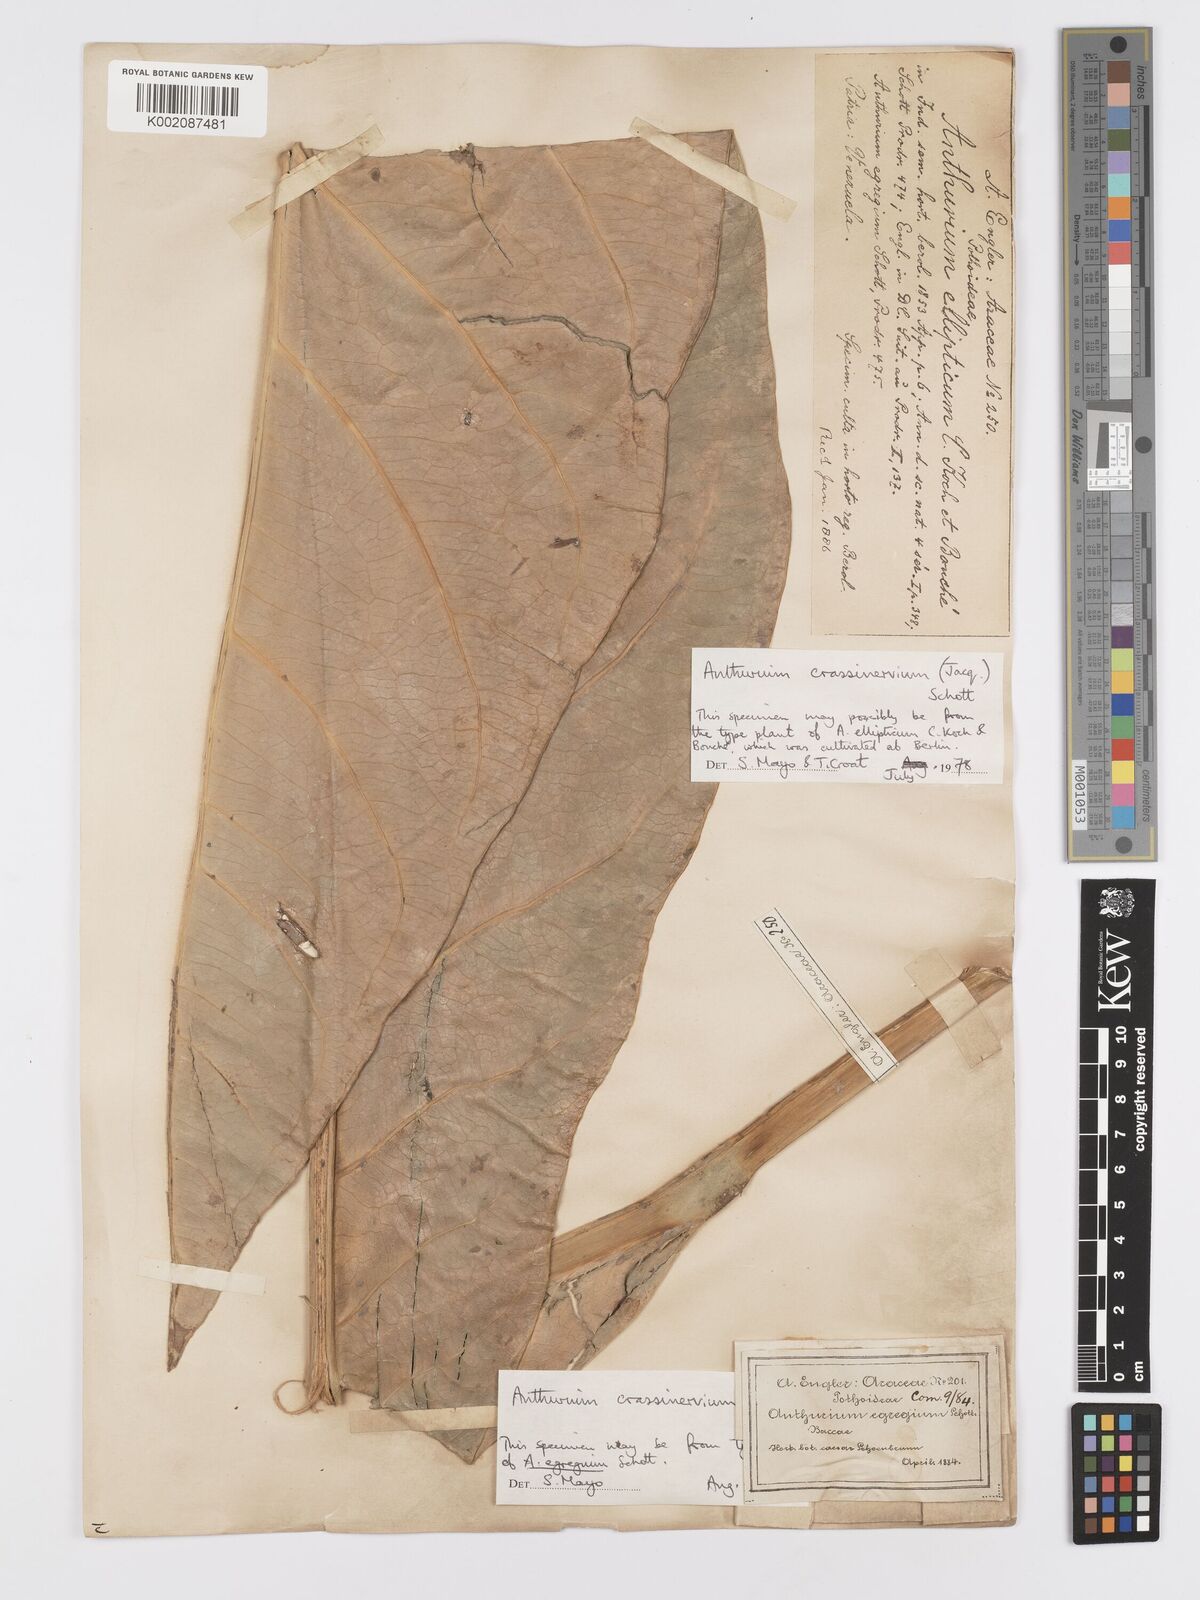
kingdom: Plantae
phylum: Tracheophyta
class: Liliopsida
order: Alismatales
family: Araceae
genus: Anthurium
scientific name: Anthurium crassinervium
